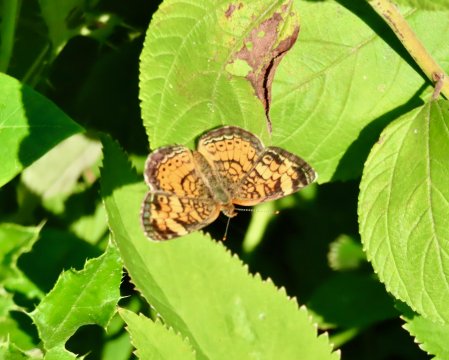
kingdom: Animalia
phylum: Arthropoda
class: Insecta
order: Lepidoptera
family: Nymphalidae
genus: Phyciodes
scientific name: Phyciodes tharos
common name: Pearl Crescent
